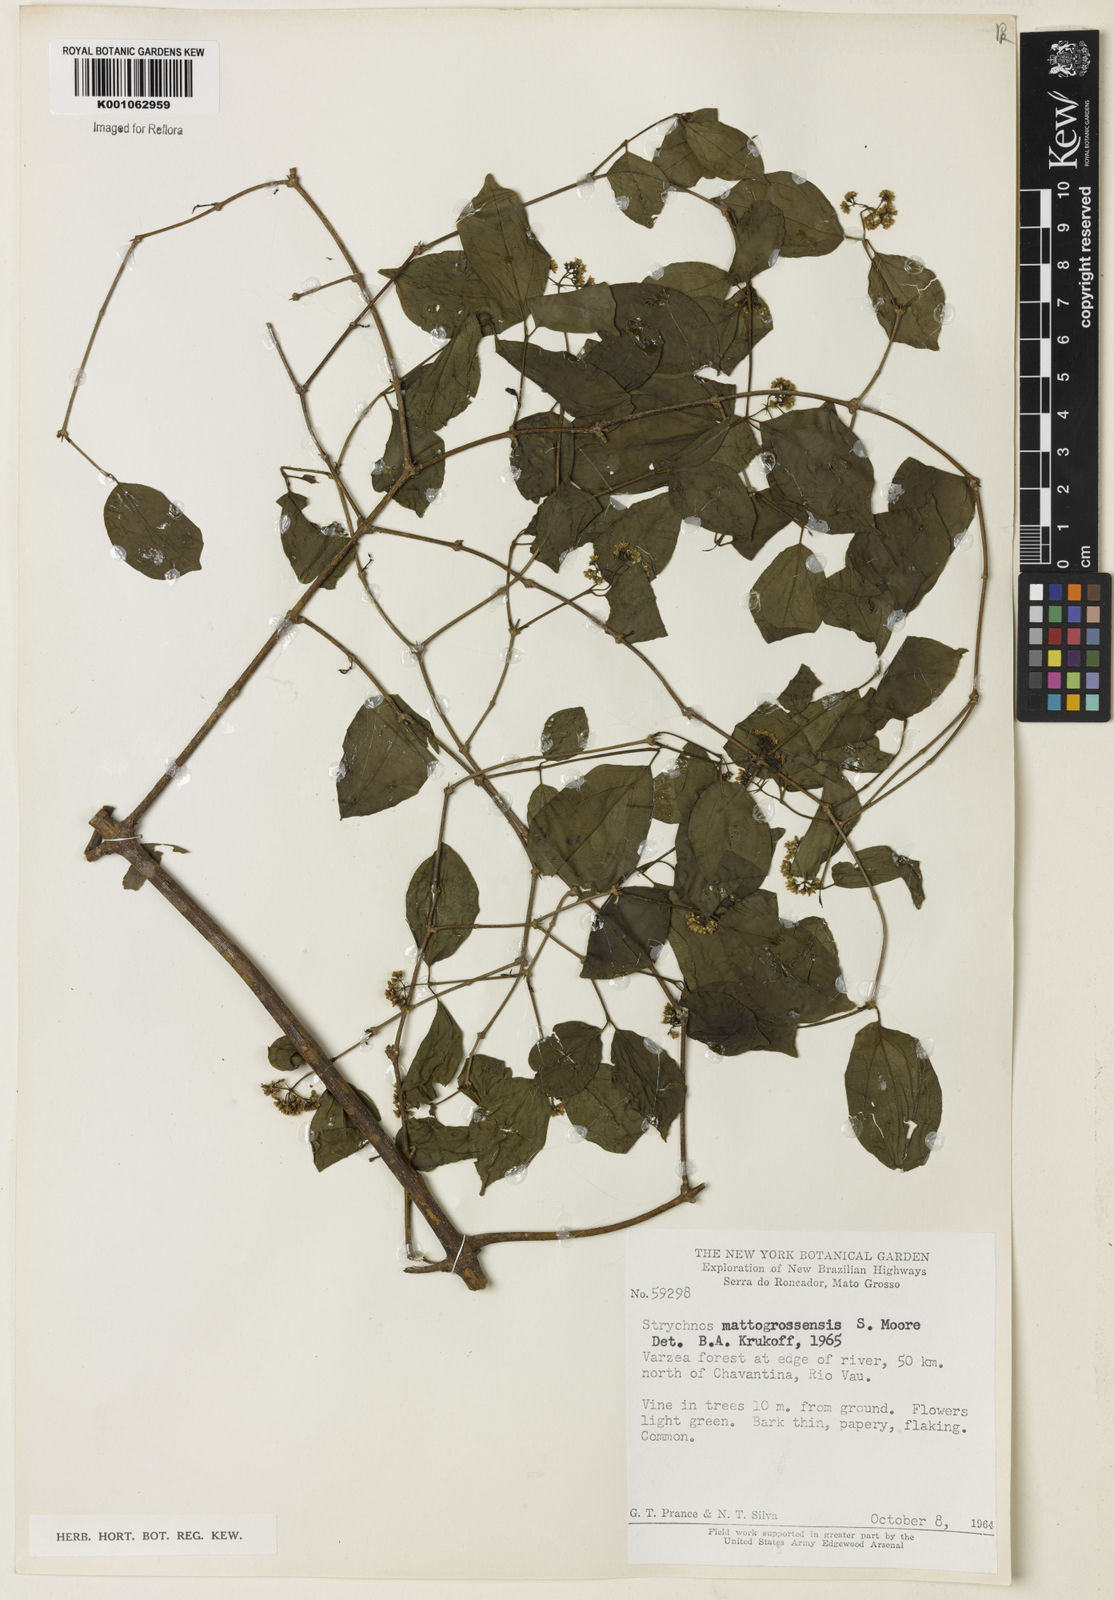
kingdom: Plantae
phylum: Tracheophyta
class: Magnoliopsida
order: Gentianales
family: Loganiaceae
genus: Strychnos
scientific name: Strychnos mattogrossensis
